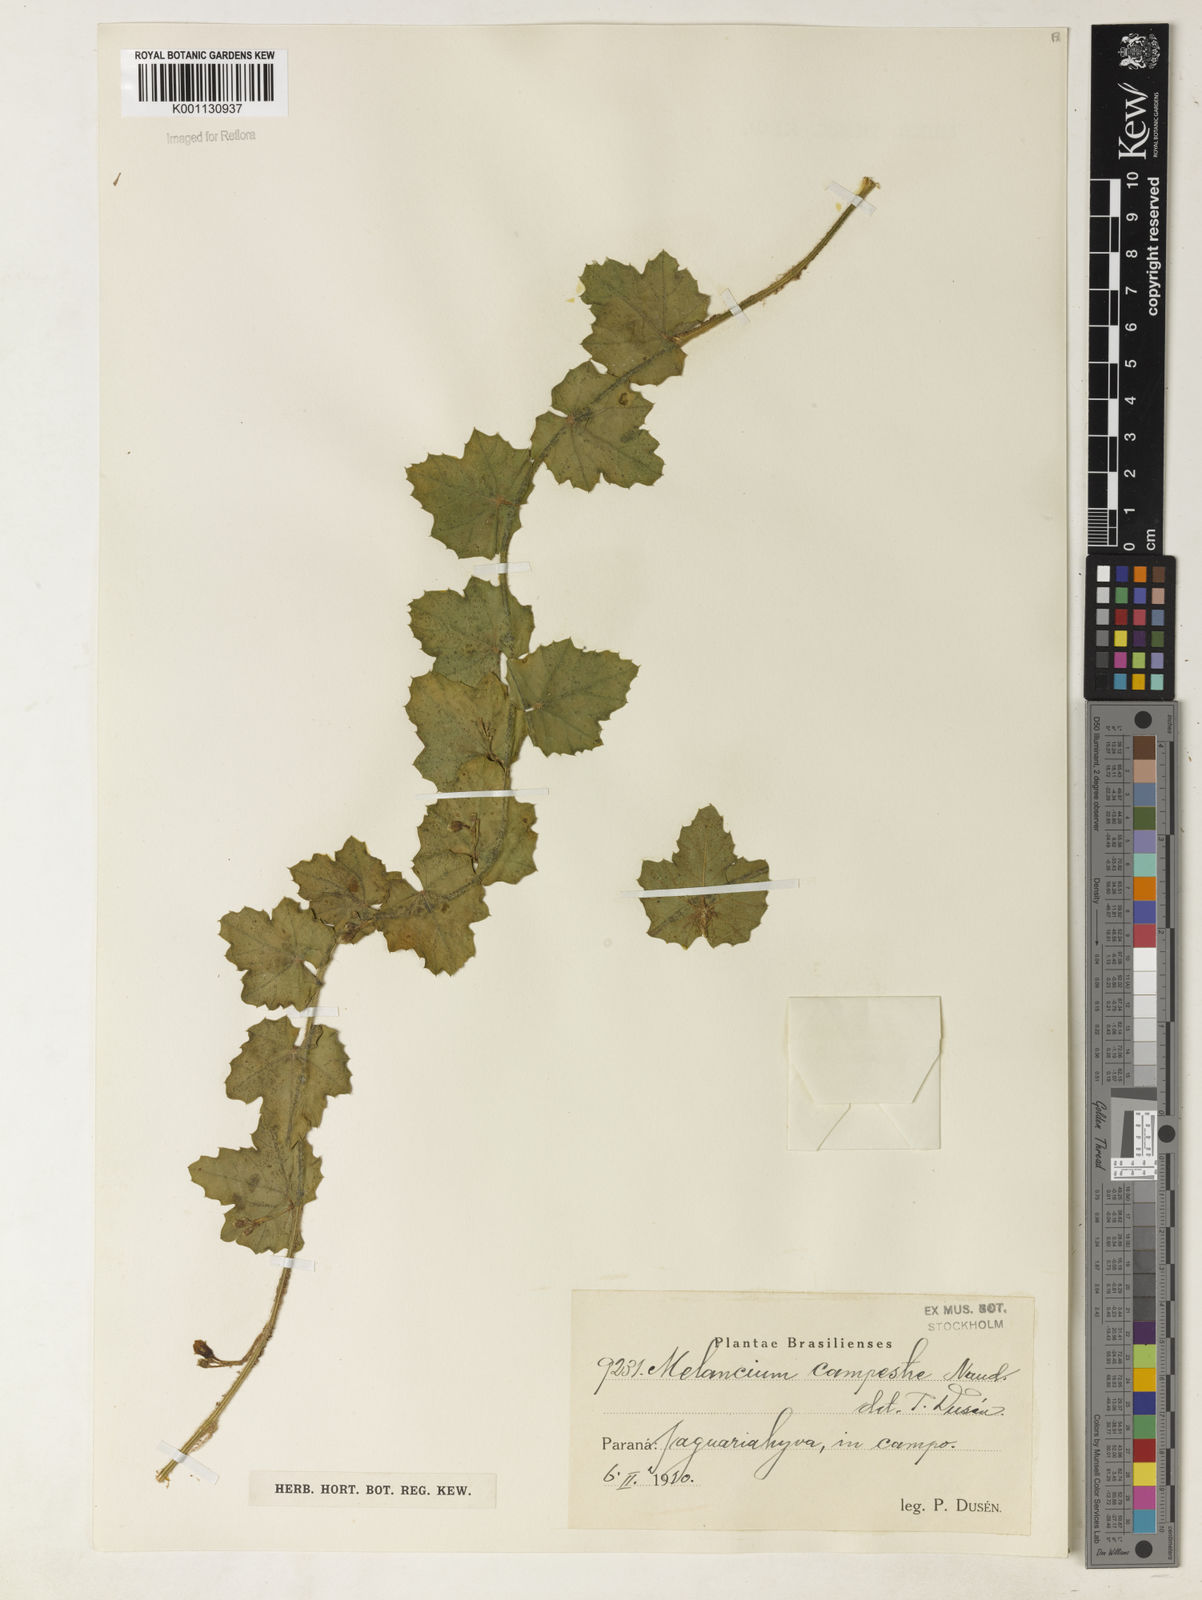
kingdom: Plantae
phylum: Tracheophyta
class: Magnoliopsida
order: Cucurbitales
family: Cucurbitaceae
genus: Melothria
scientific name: Melothria campestris
